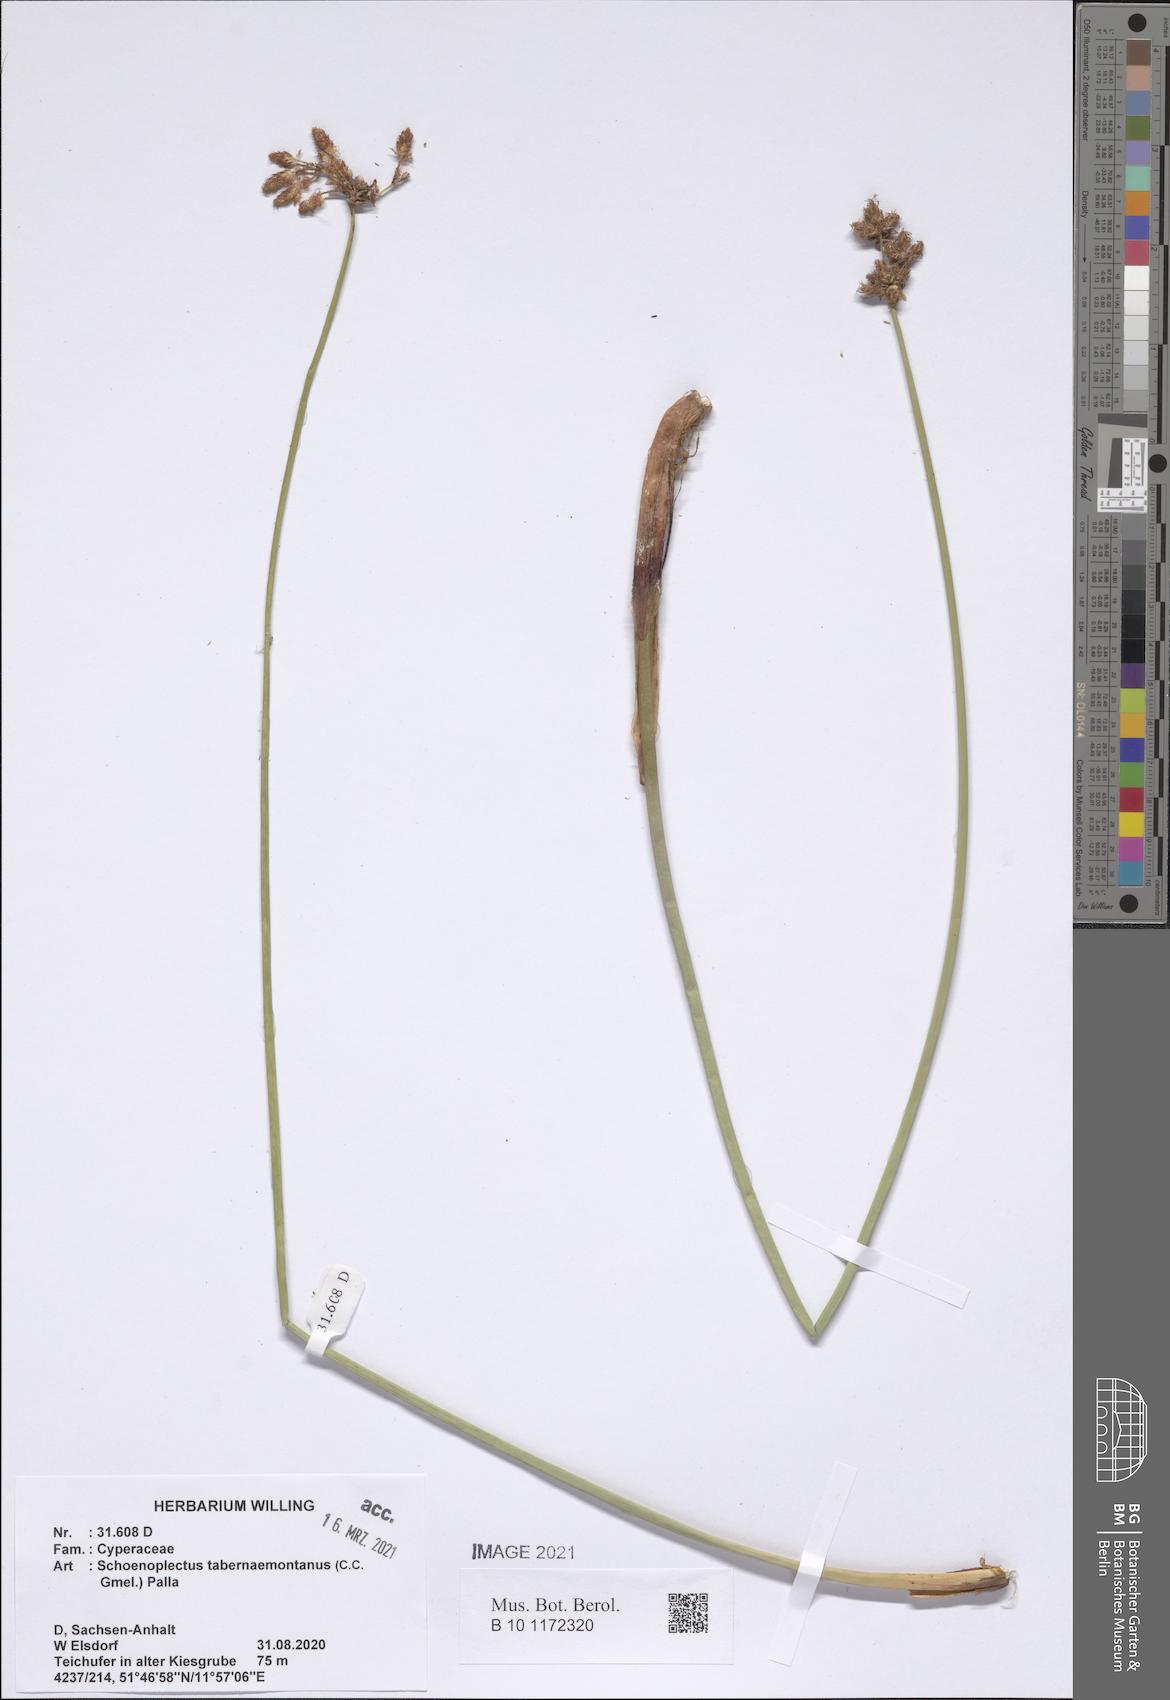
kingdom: Plantae
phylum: Tracheophyta
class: Liliopsida
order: Poales
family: Cyperaceae
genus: Schoenoplectus
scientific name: Schoenoplectus tabernaemontani
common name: Grey club-rush
